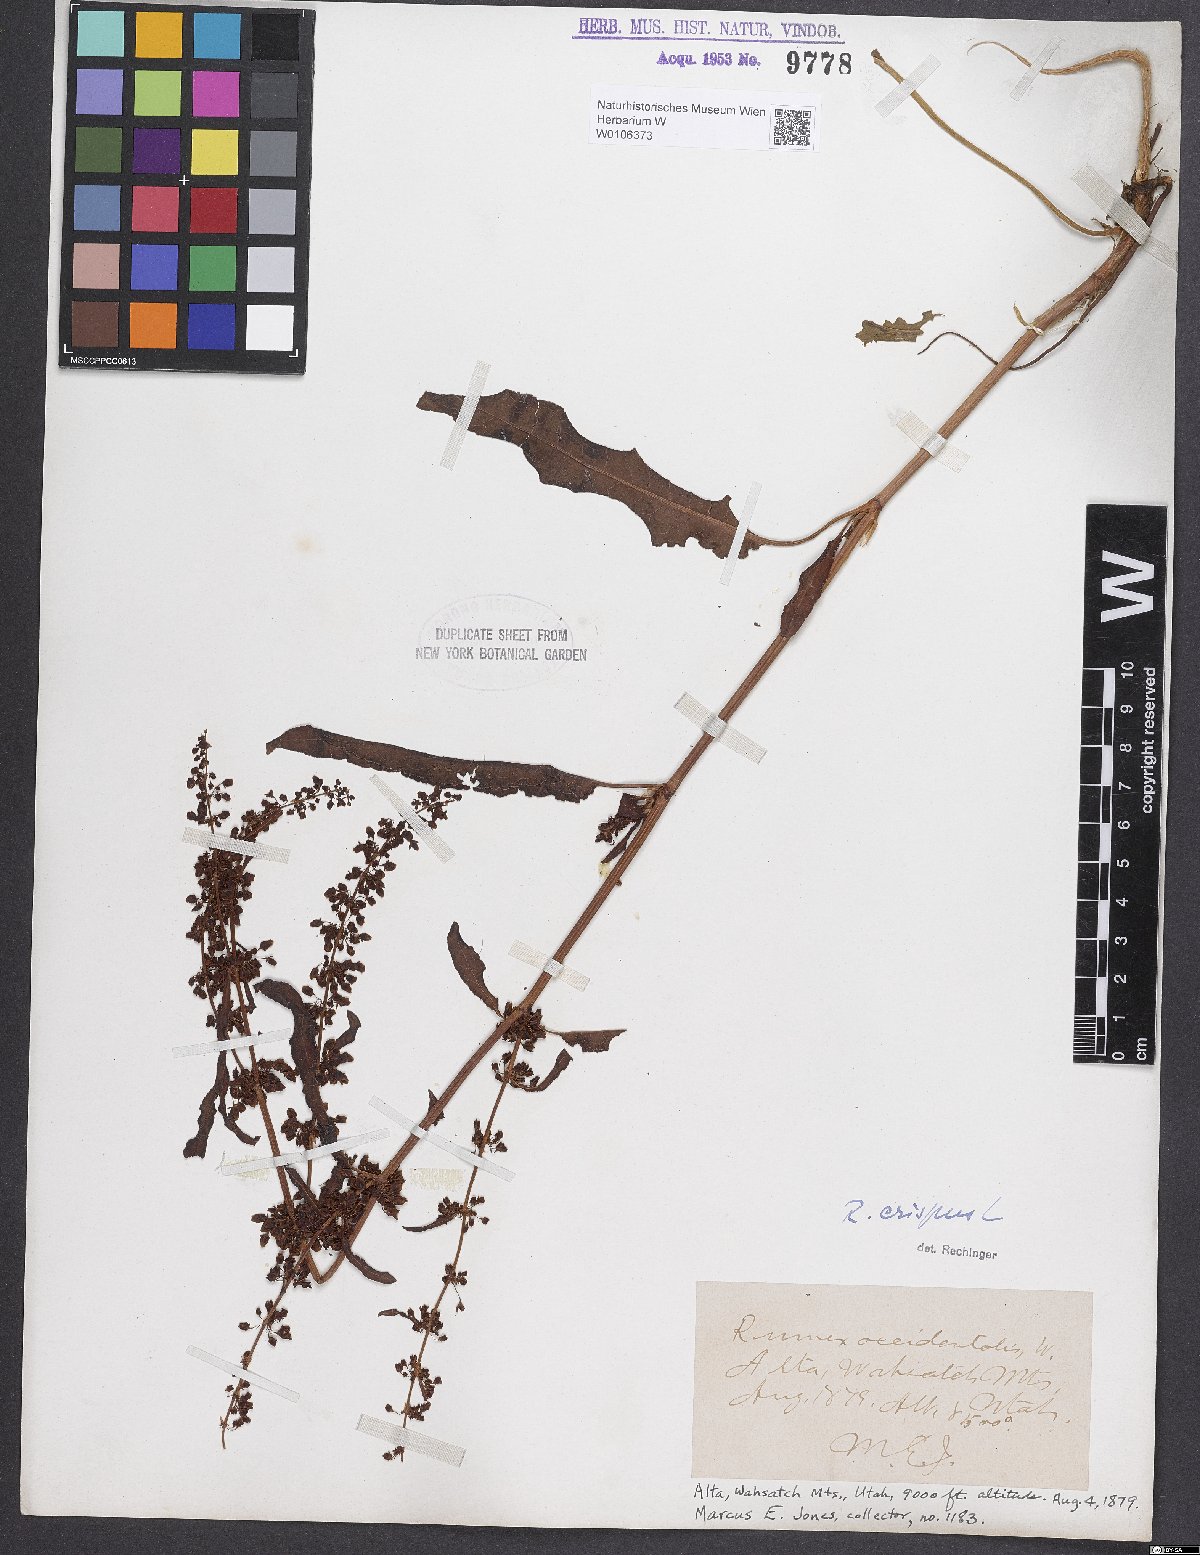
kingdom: Plantae
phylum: Tracheophyta
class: Magnoliopsida
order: Caryophyllales
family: Polygonaceae
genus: Rumex
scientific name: Rumex crispus
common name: Curled dock
